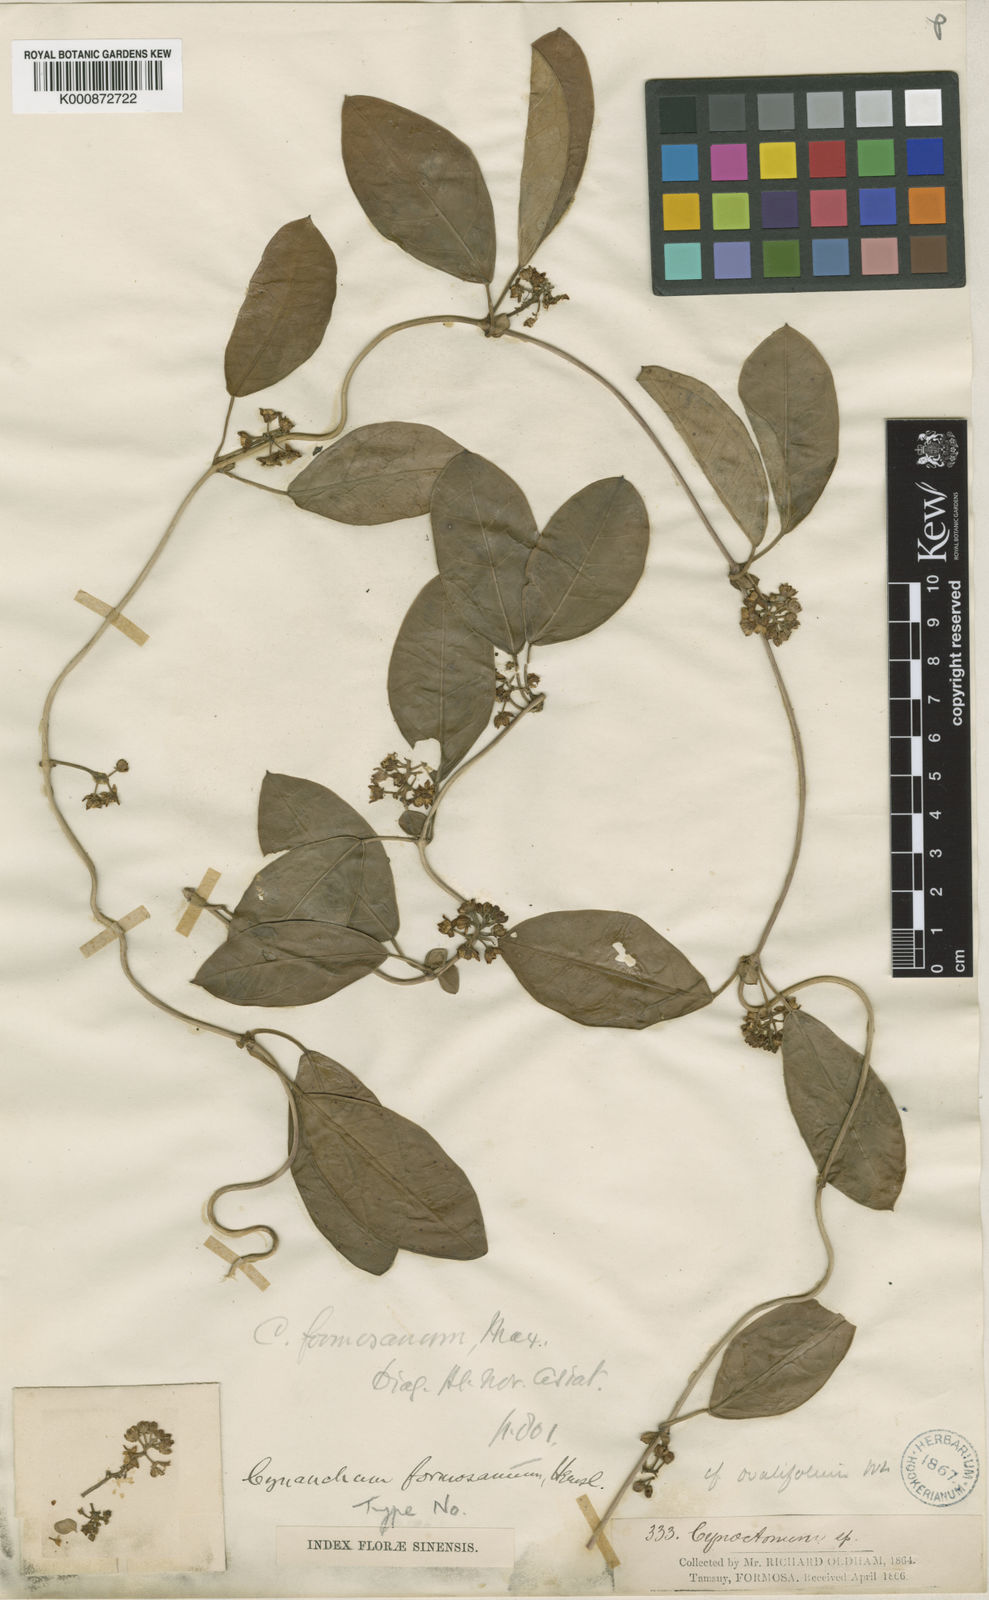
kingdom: Plantae
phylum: Tracheophyta
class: Magnoliopsida
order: Gentianales
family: Apocynaceae
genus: Cynanchum
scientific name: Cynanchum ovalifolium
